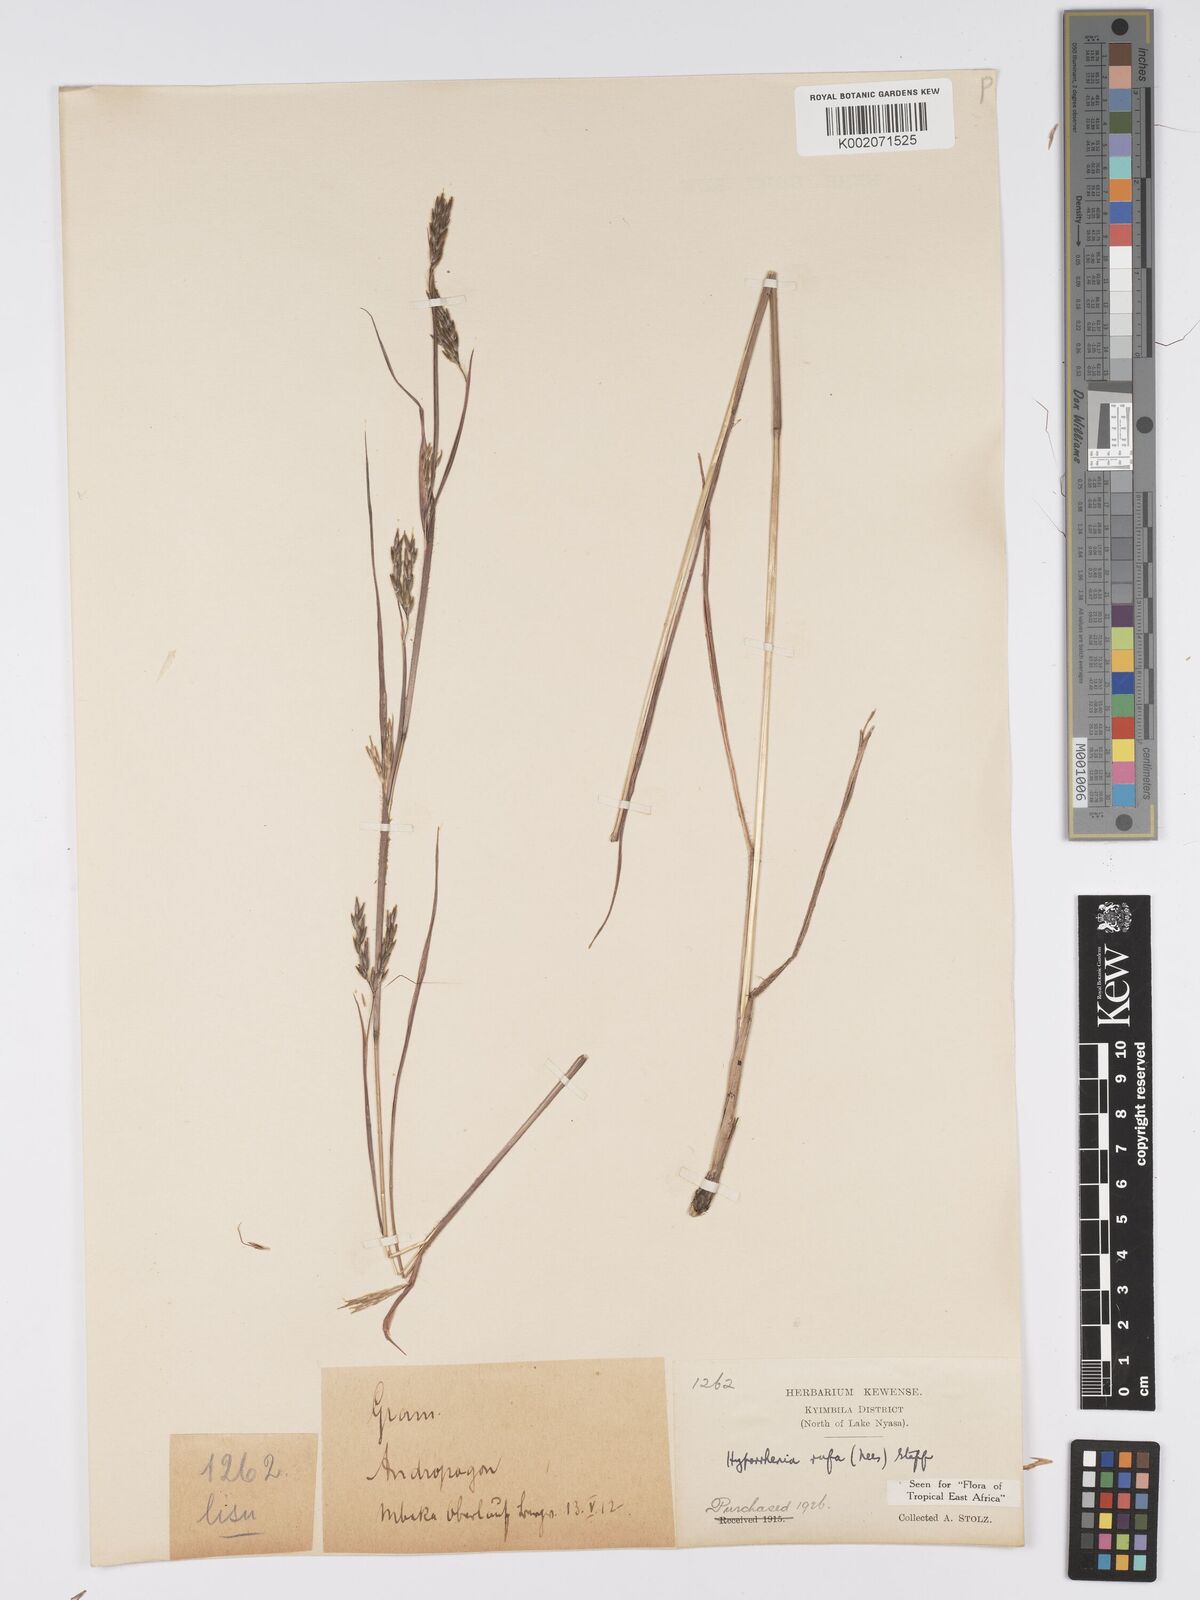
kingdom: Plantae
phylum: Tracheophyta
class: Liliopsida
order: Poales
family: Poaceae
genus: Hyparrhenia
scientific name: Hyparrhenia rufa
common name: Jaraguagrass
